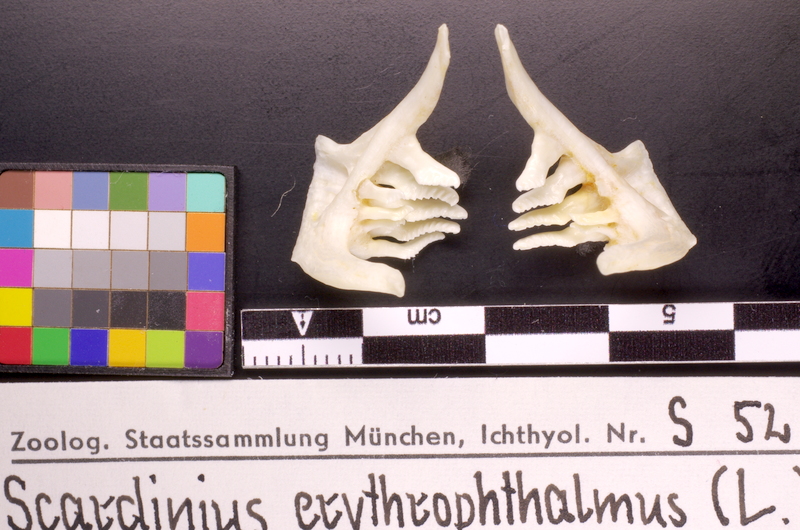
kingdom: Animalia
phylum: Chordata
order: Cypriniformes
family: Cyprinidae
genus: Scardinius
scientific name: Scardinius erythrophthalmus
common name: Rudd
